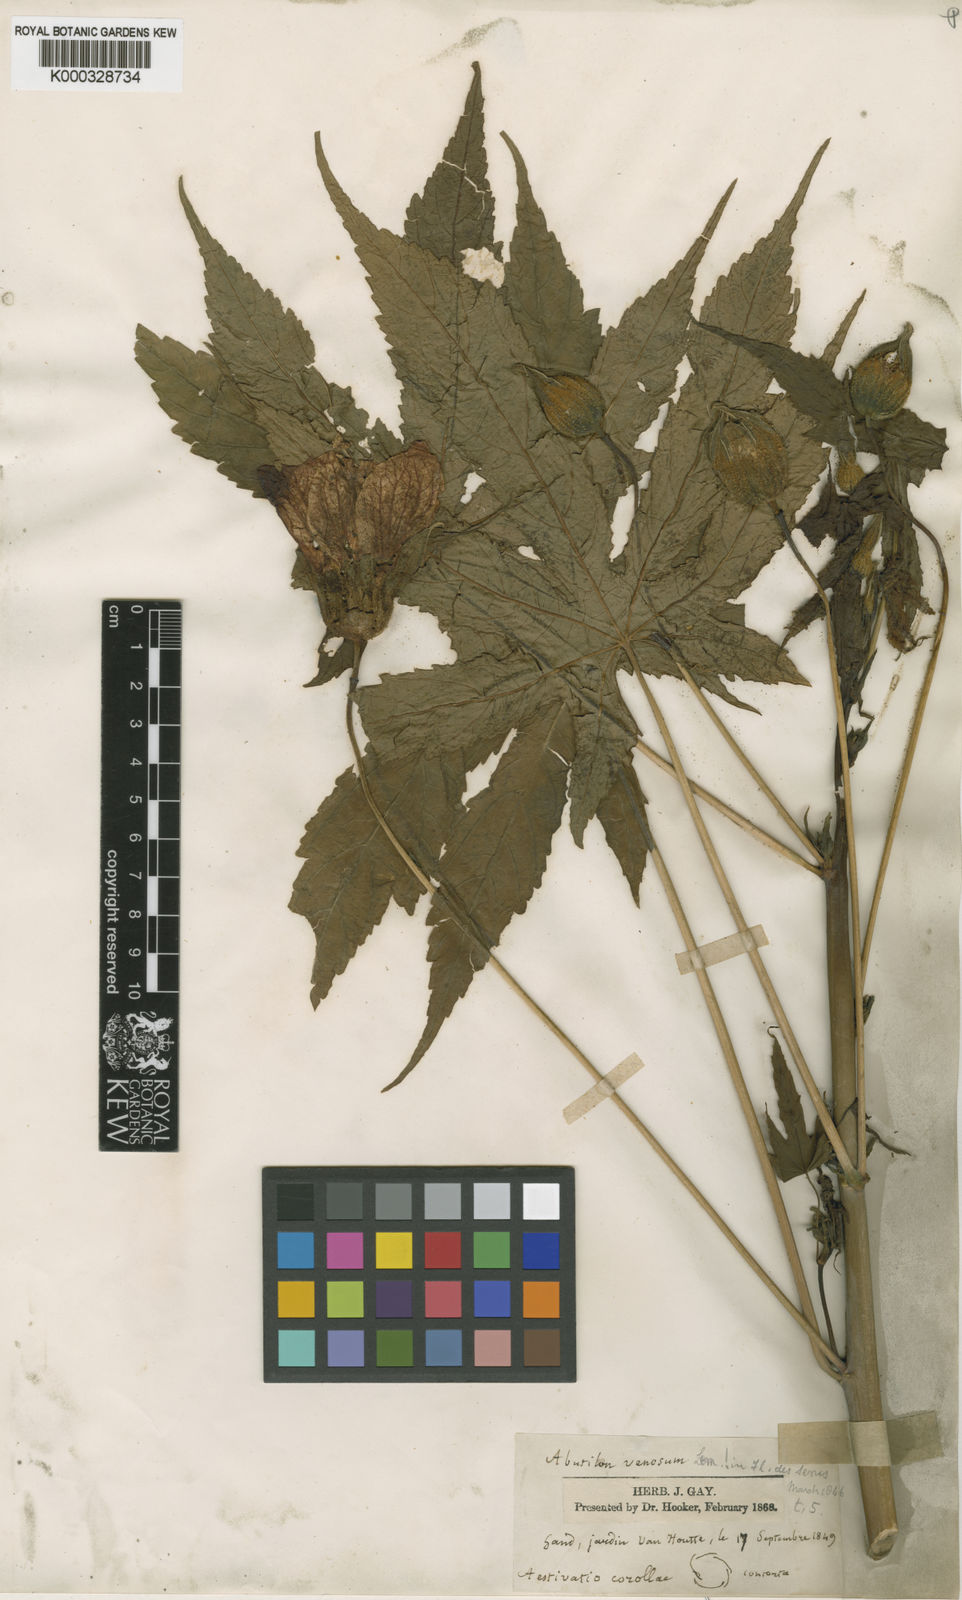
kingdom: Plantae
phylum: Tracheophyta
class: Magnoliopsida
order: Malvales
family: Malvaceae
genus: Callianthe
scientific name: Callianthe striata
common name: Flowering-maple
